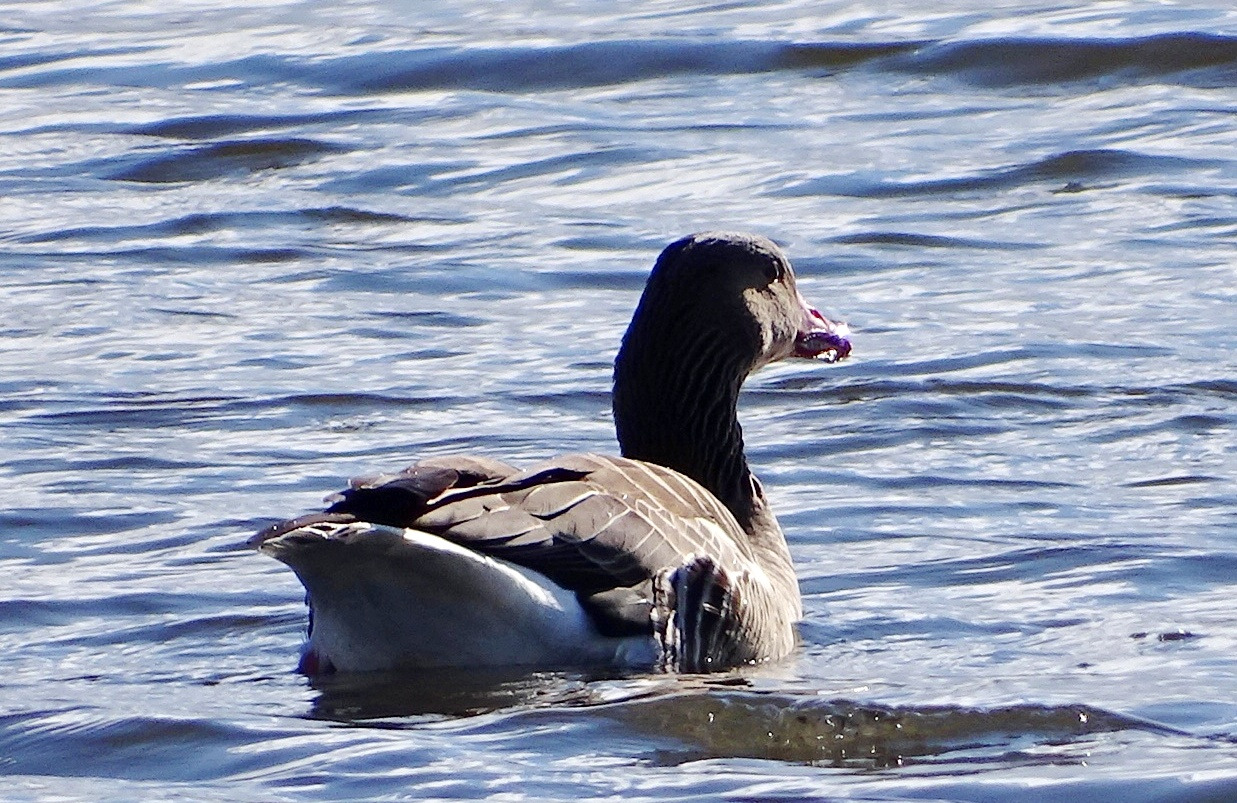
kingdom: Animalia
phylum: Chordata
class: Aves
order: Anseriformes
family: Anatidae
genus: Anser
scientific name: Anser anser
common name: Grågås
